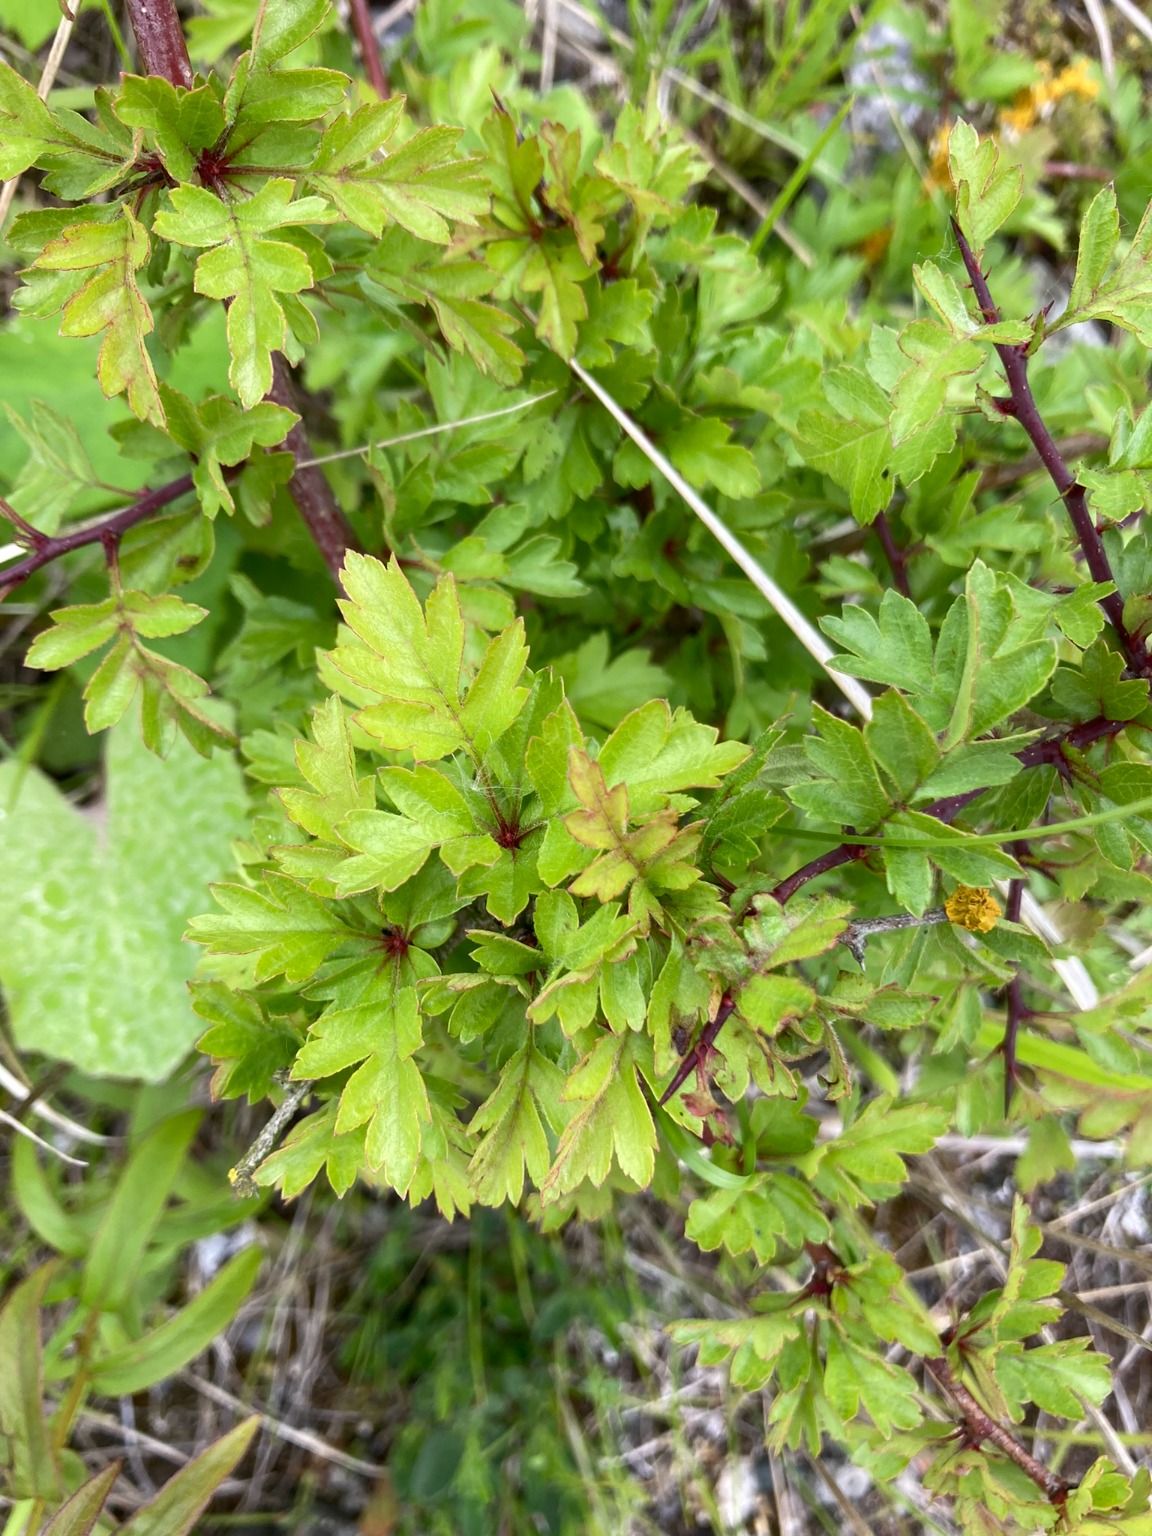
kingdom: Plantae
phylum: Tracheophyta
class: Magnoliopsida
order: Rosales
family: Rosaceae
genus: Crataegus
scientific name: Crataegus subsphaerica
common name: Engriflet hvidtjørn × koral-hvidtjørn
